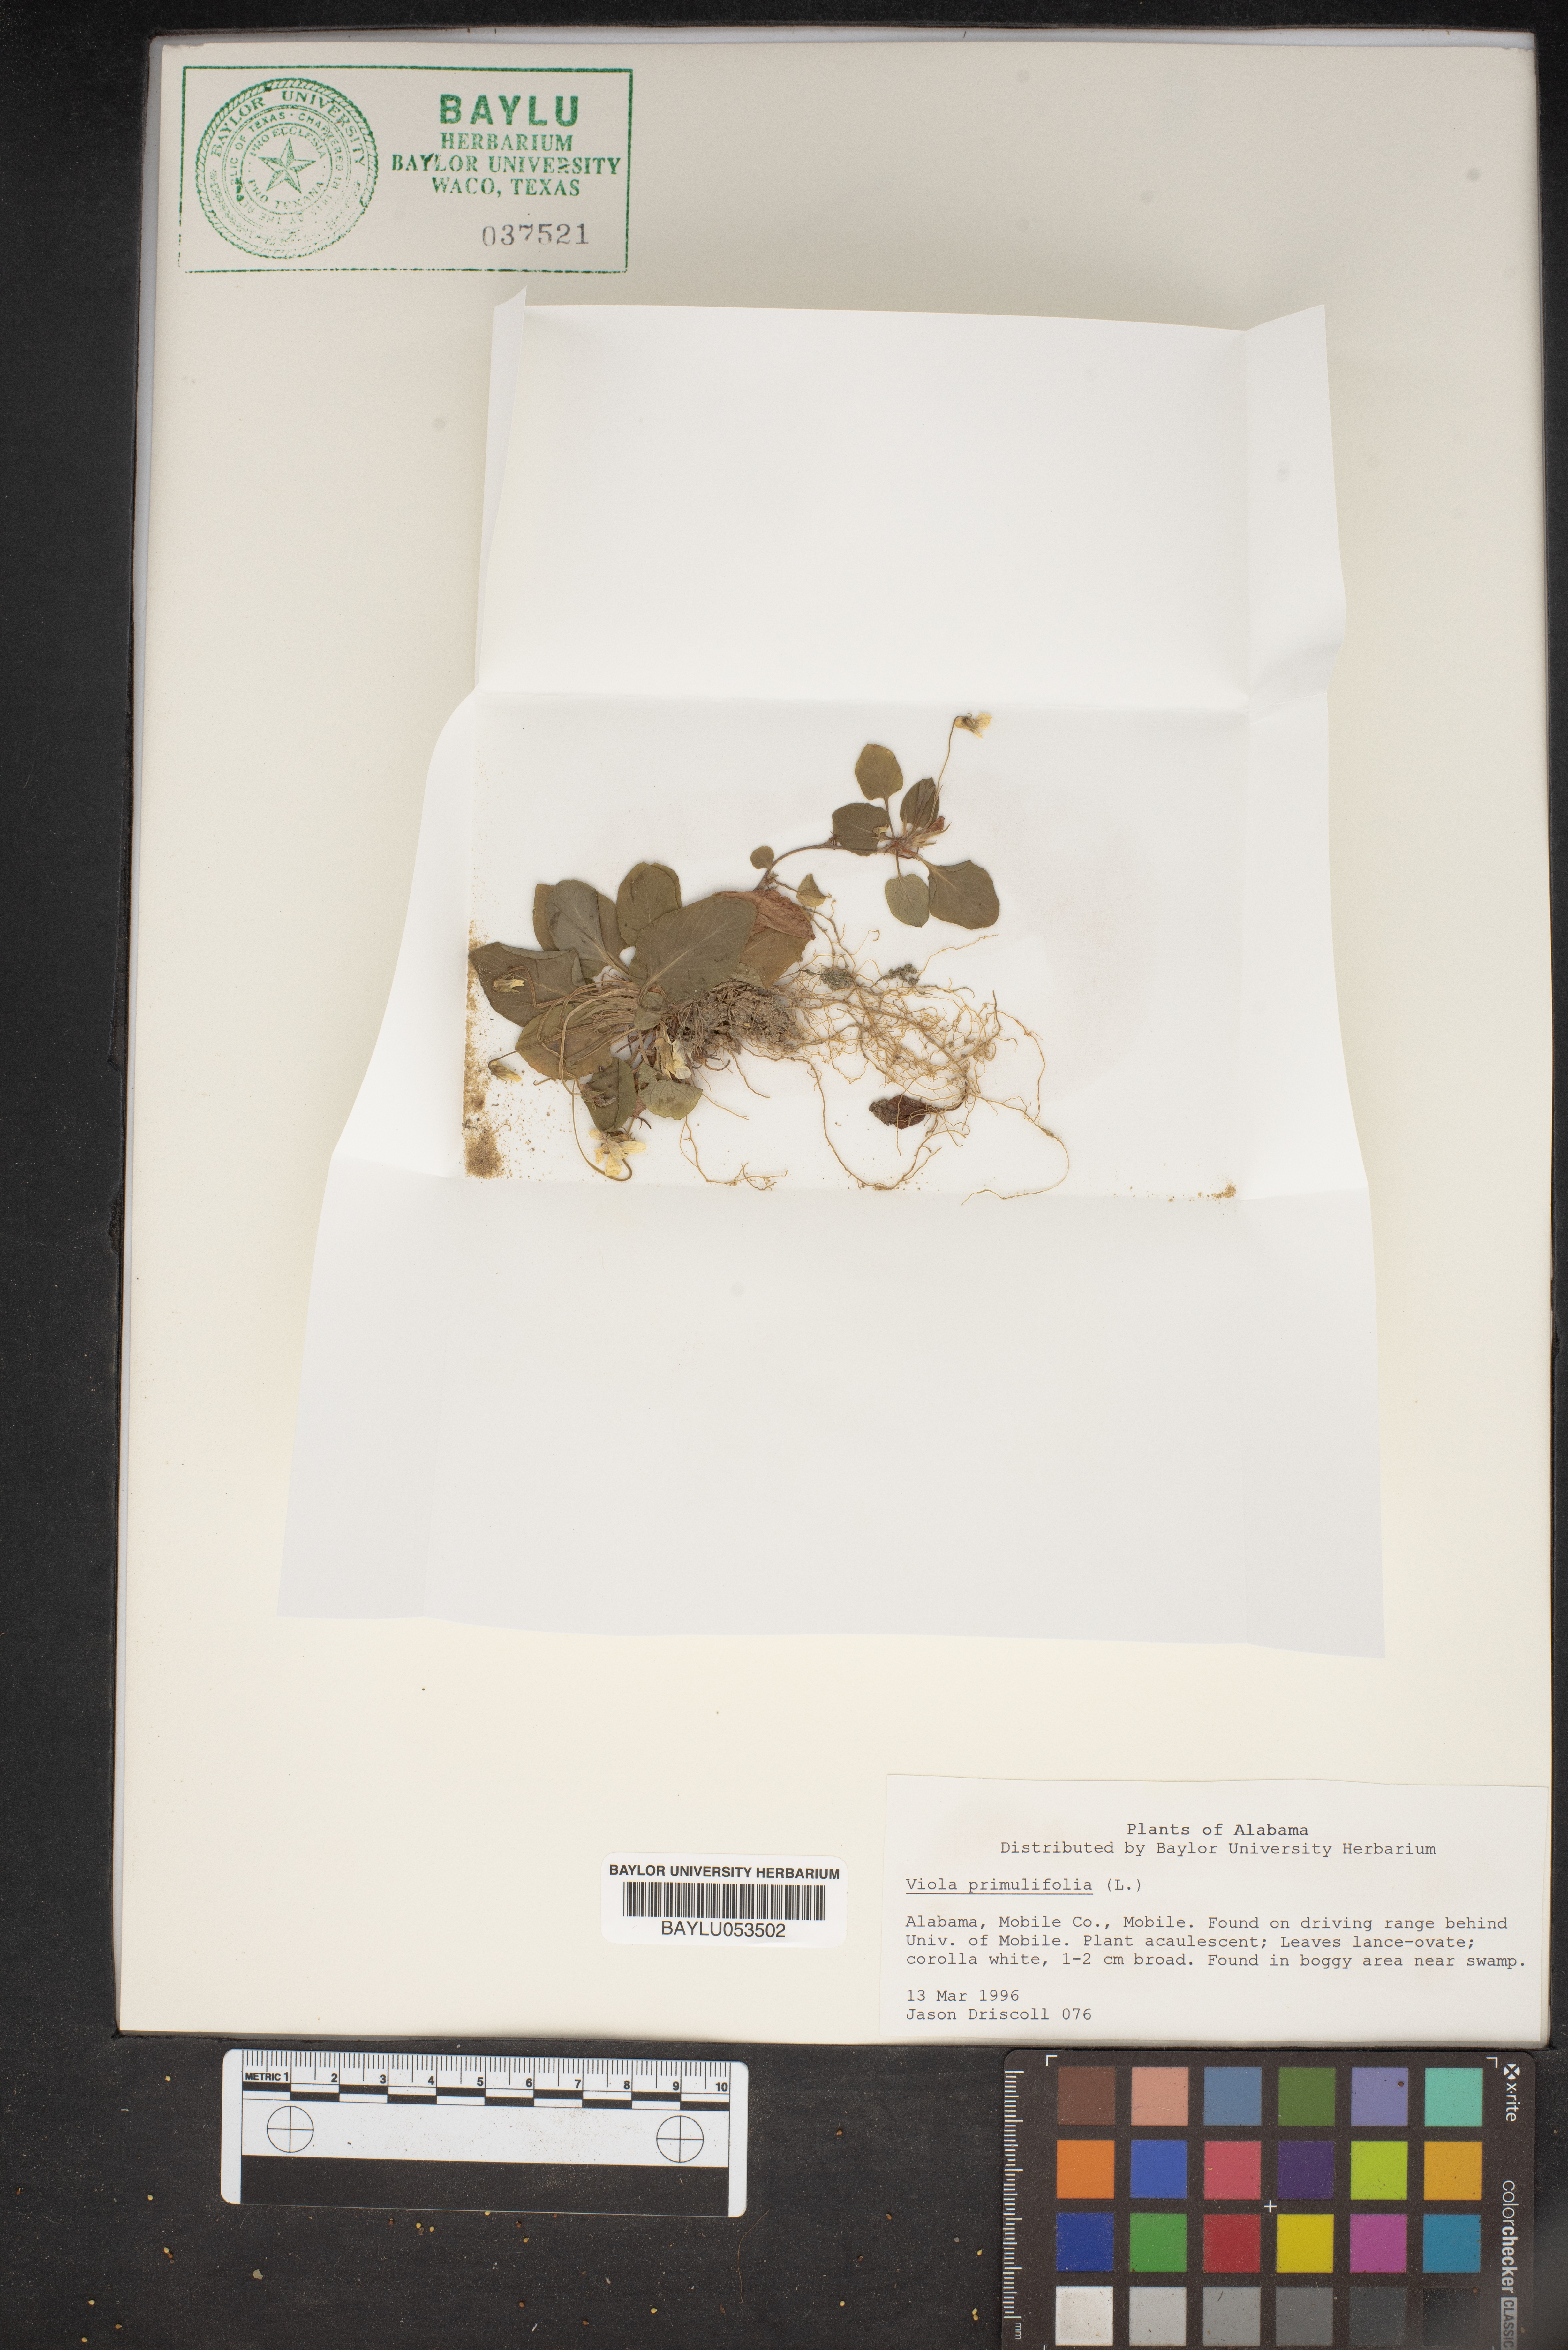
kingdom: Plantae
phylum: Tracheophyta
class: Magnoliopsida
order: Malpighiales
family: Violaceae
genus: Viola
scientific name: Viola primulifolia
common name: Primrose-leaf violet
